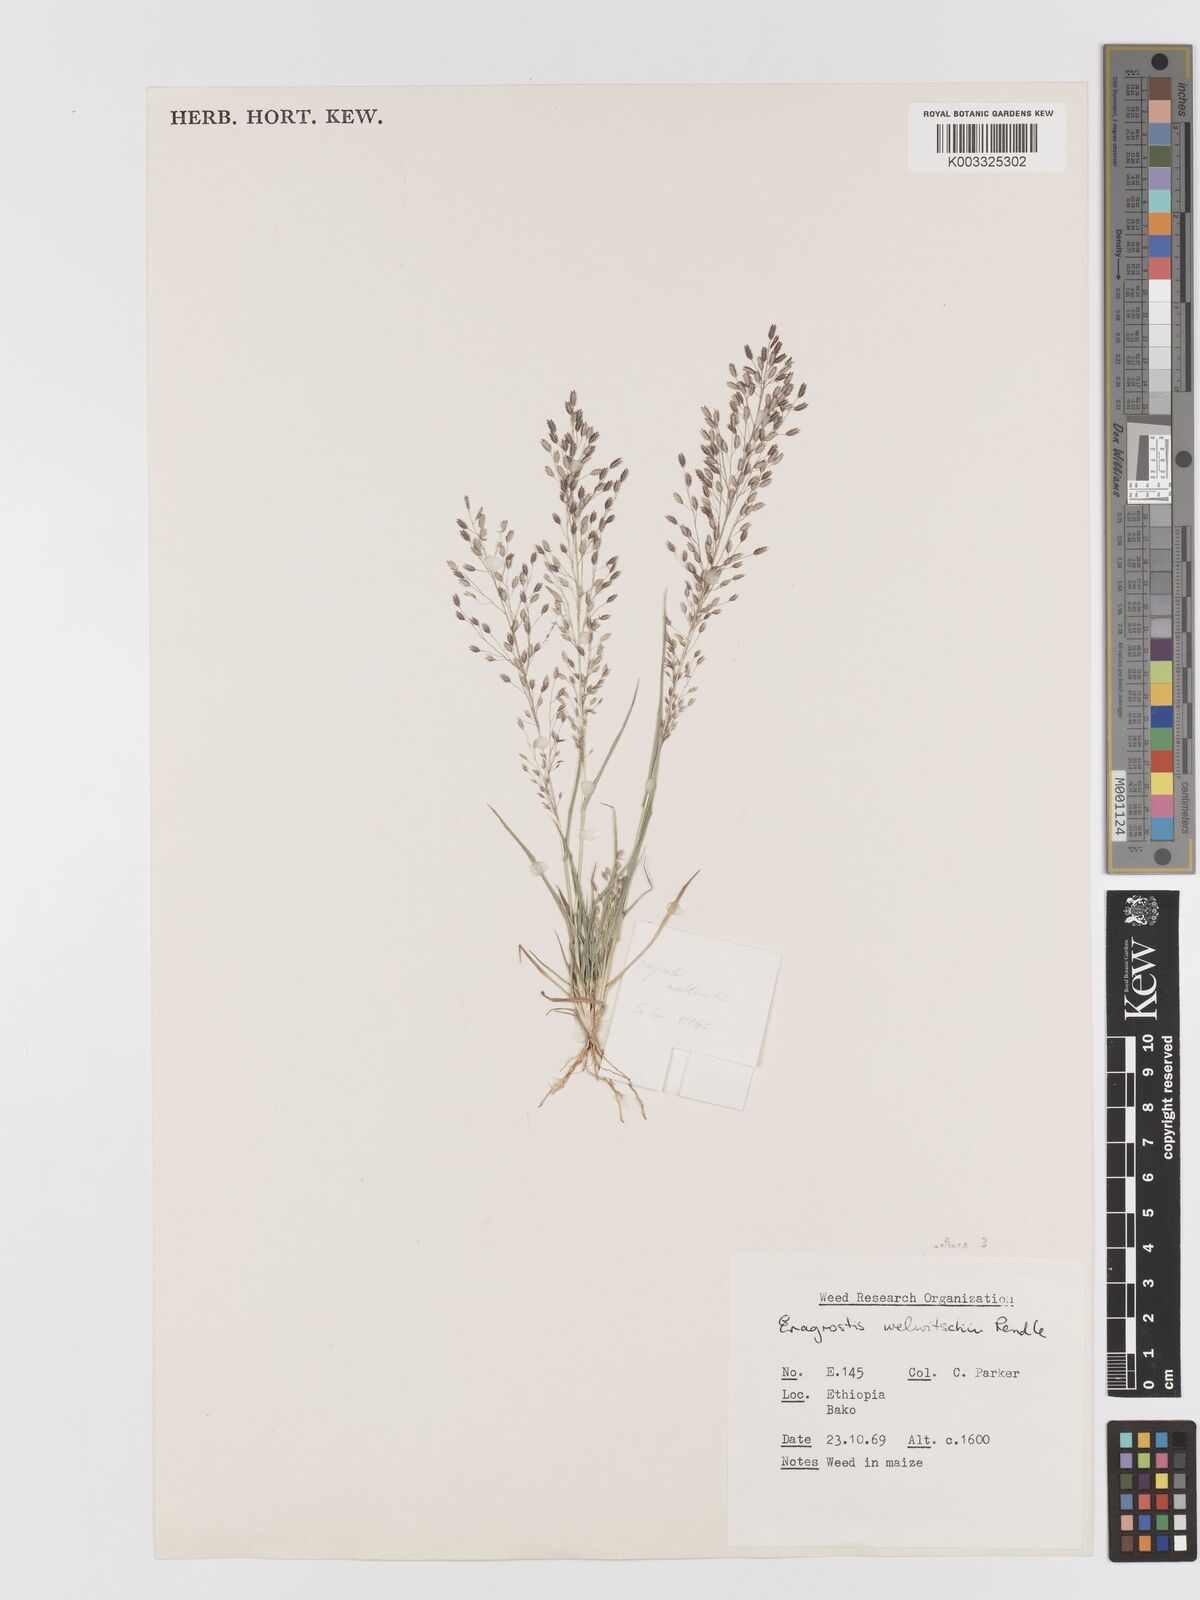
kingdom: Plantae
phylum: Tracheophyta
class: Liliopsida
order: Poales
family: Poaceae
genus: Eragrostis
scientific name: Eragrostis welwitschii
